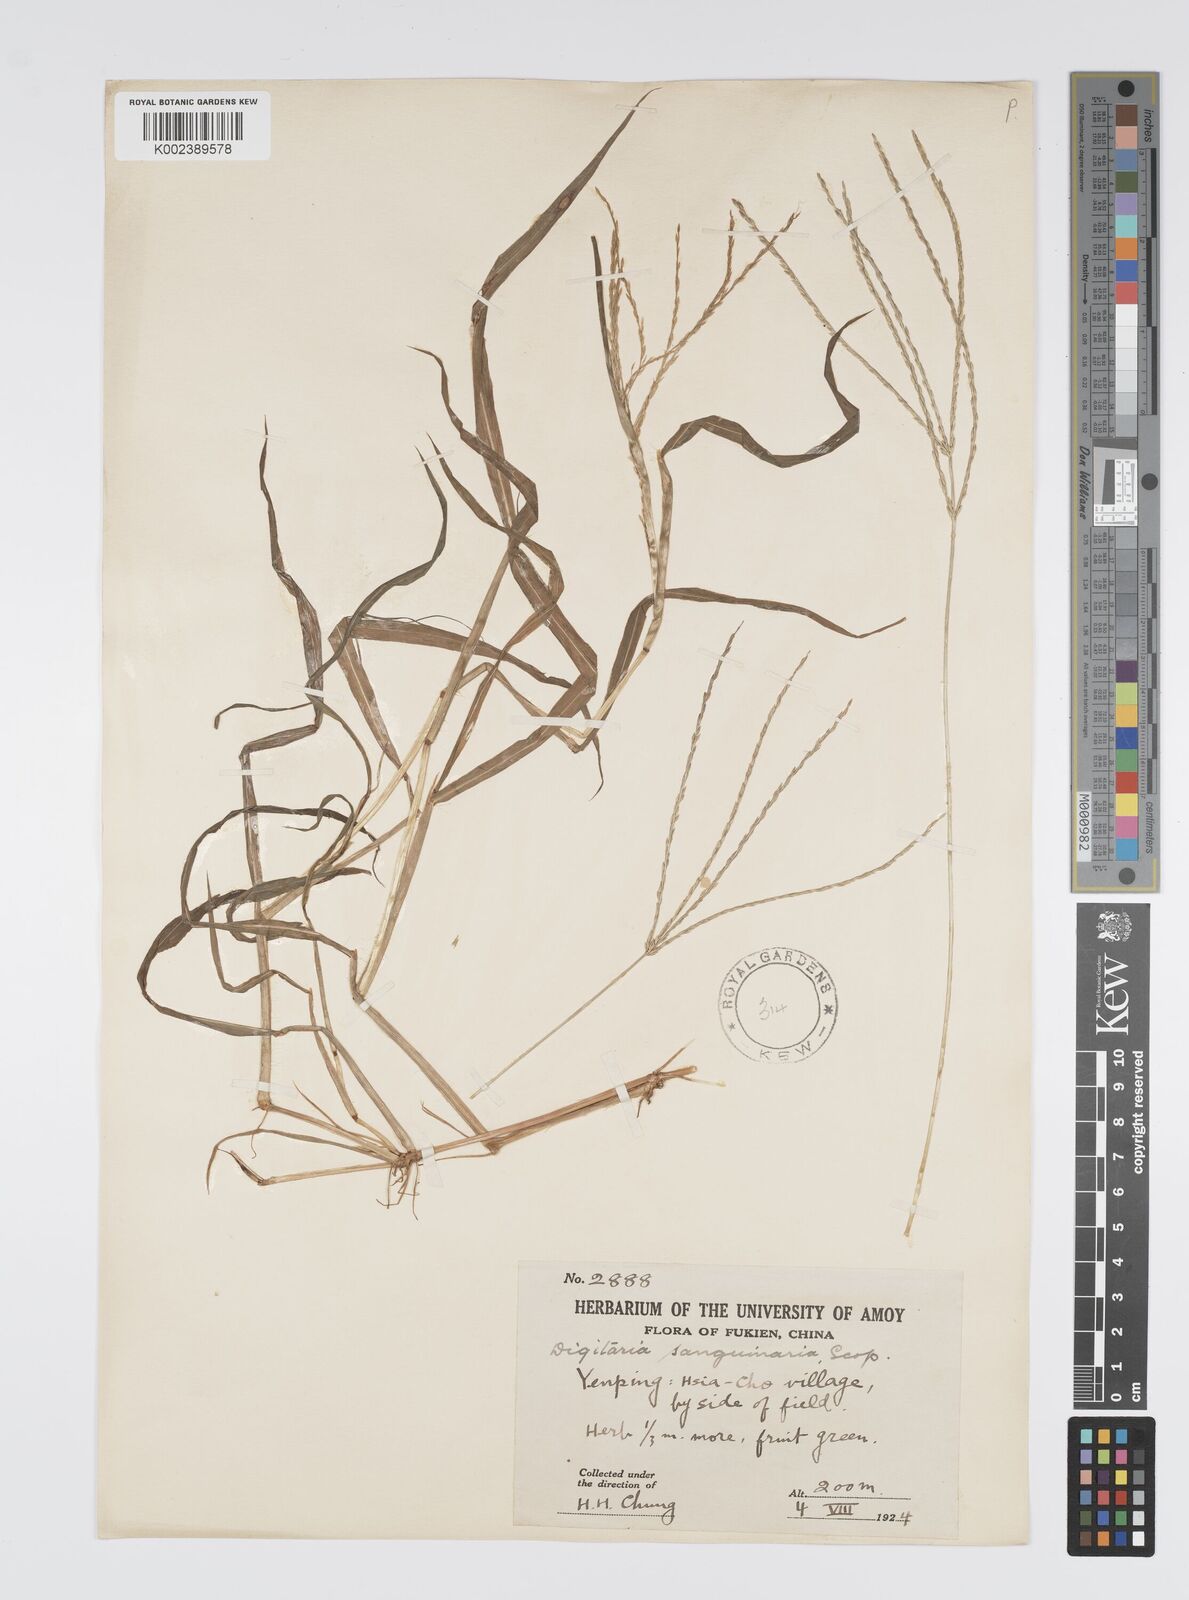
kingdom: Plantae
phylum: Tracheophyta
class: Liliopsida
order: Poales
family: Poaceae
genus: Digitaria
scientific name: Digitaria ciliaris
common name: Tropical finger-grass
